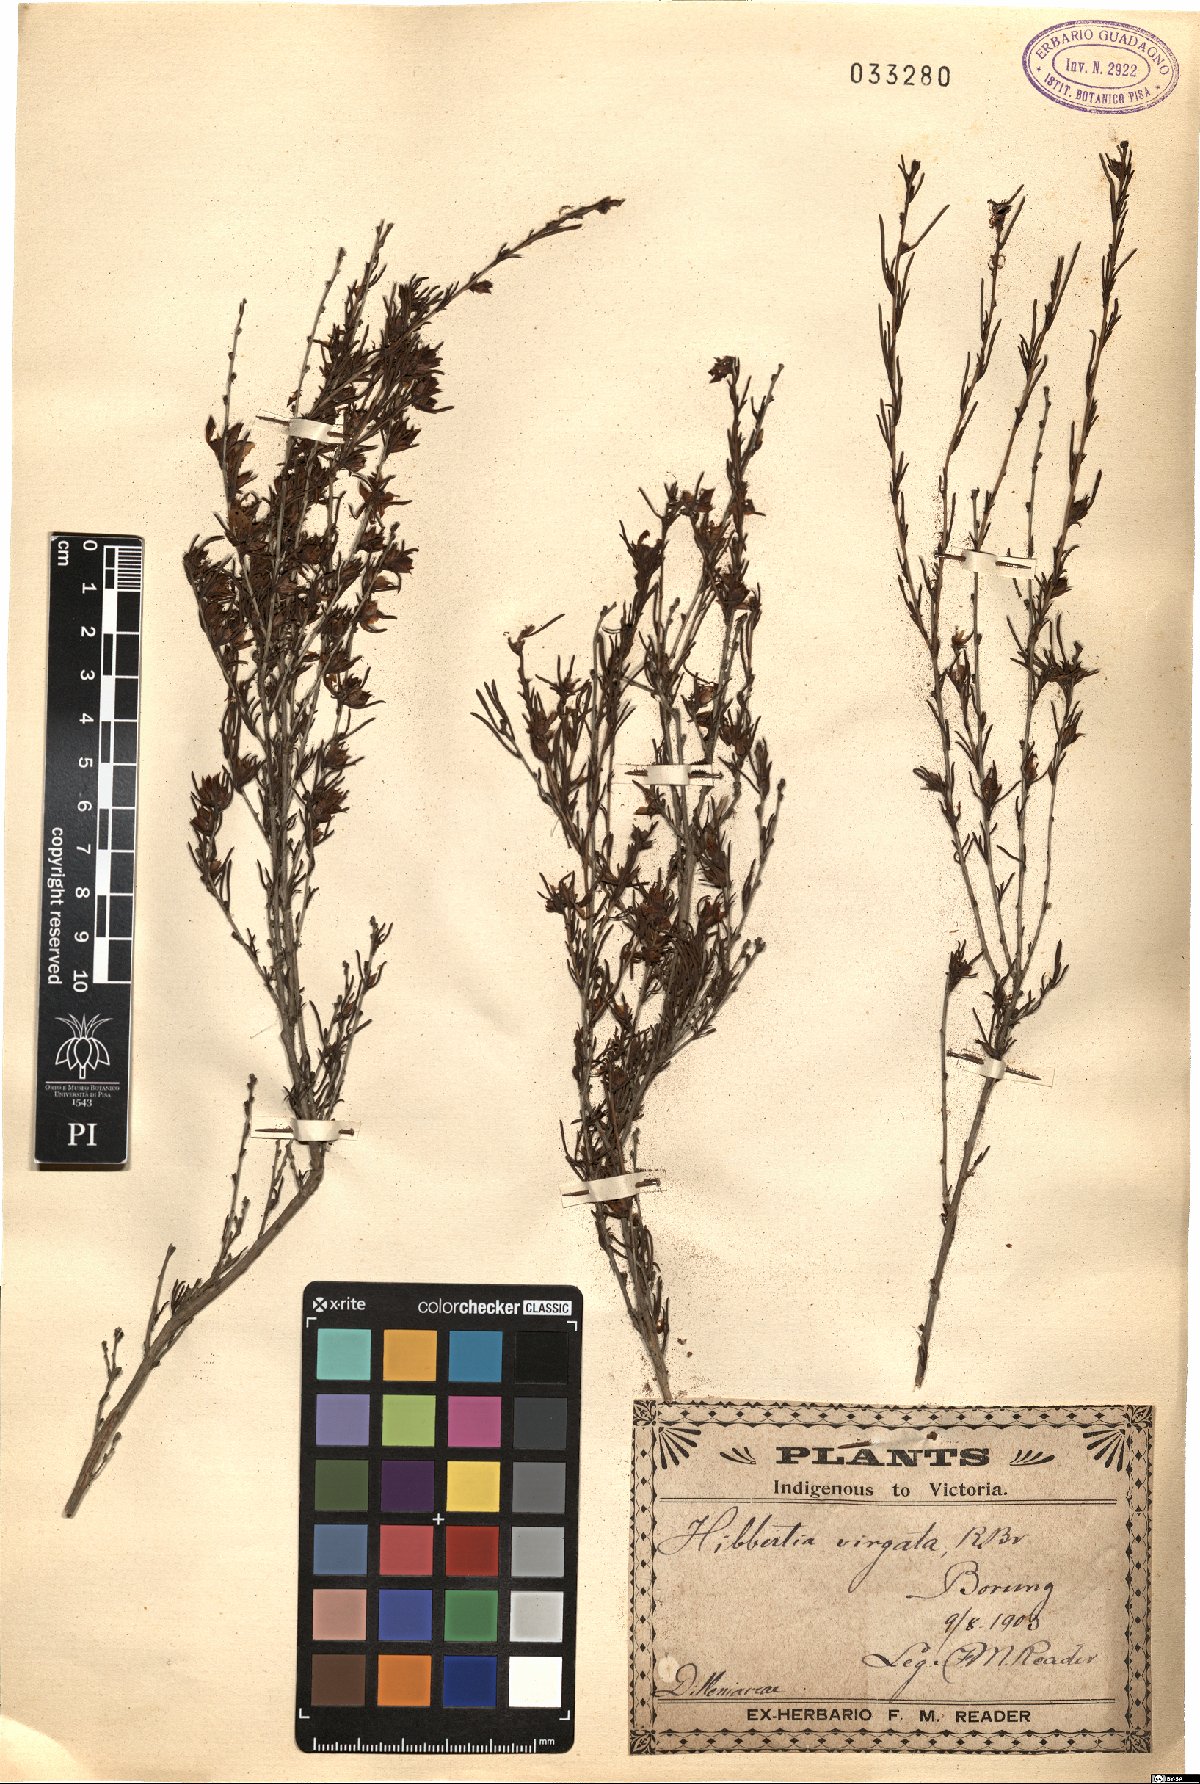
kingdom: Plantae
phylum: Tracheophyta
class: Magnoliopsida
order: Dilleniales
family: Dilleniaceae
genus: Hibbertia
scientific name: Hibbertia virgata
